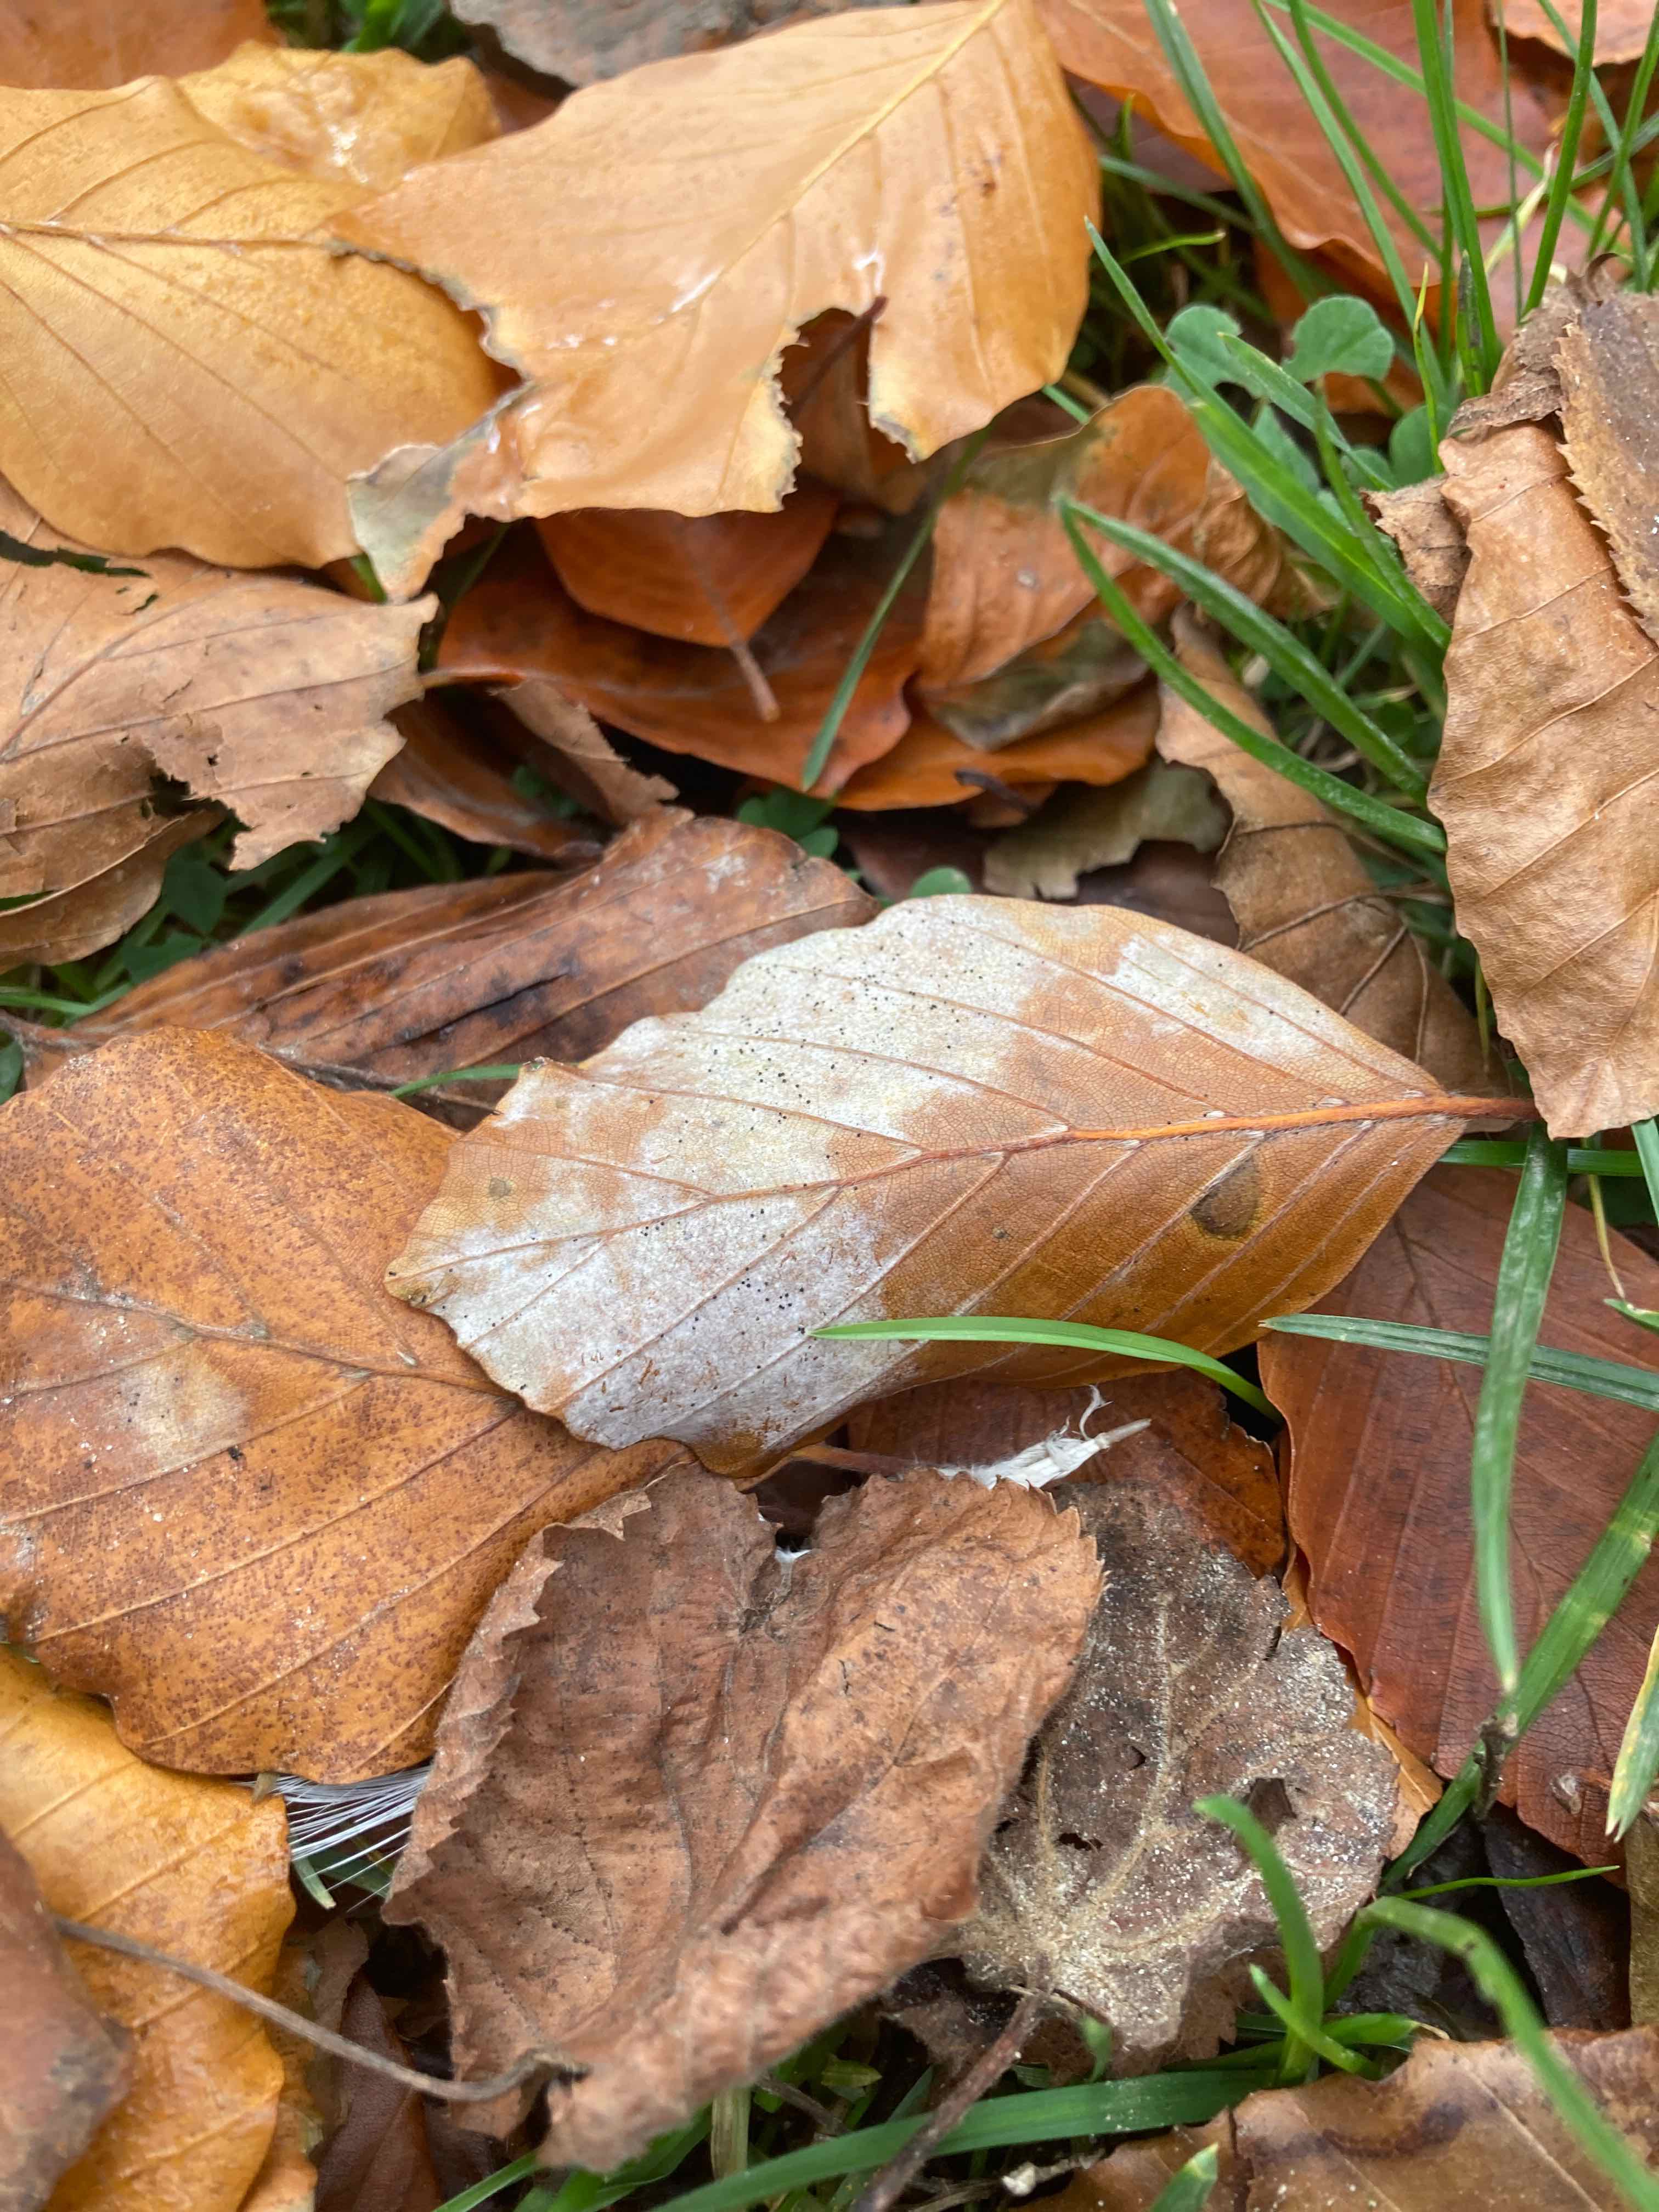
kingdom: Fungi
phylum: Ascomycota
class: Leotiomycetes
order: Helotiales
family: Erysiphaceae
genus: Phyllactinia
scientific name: Phyllactinia orbicularis
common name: bøge-meldug
